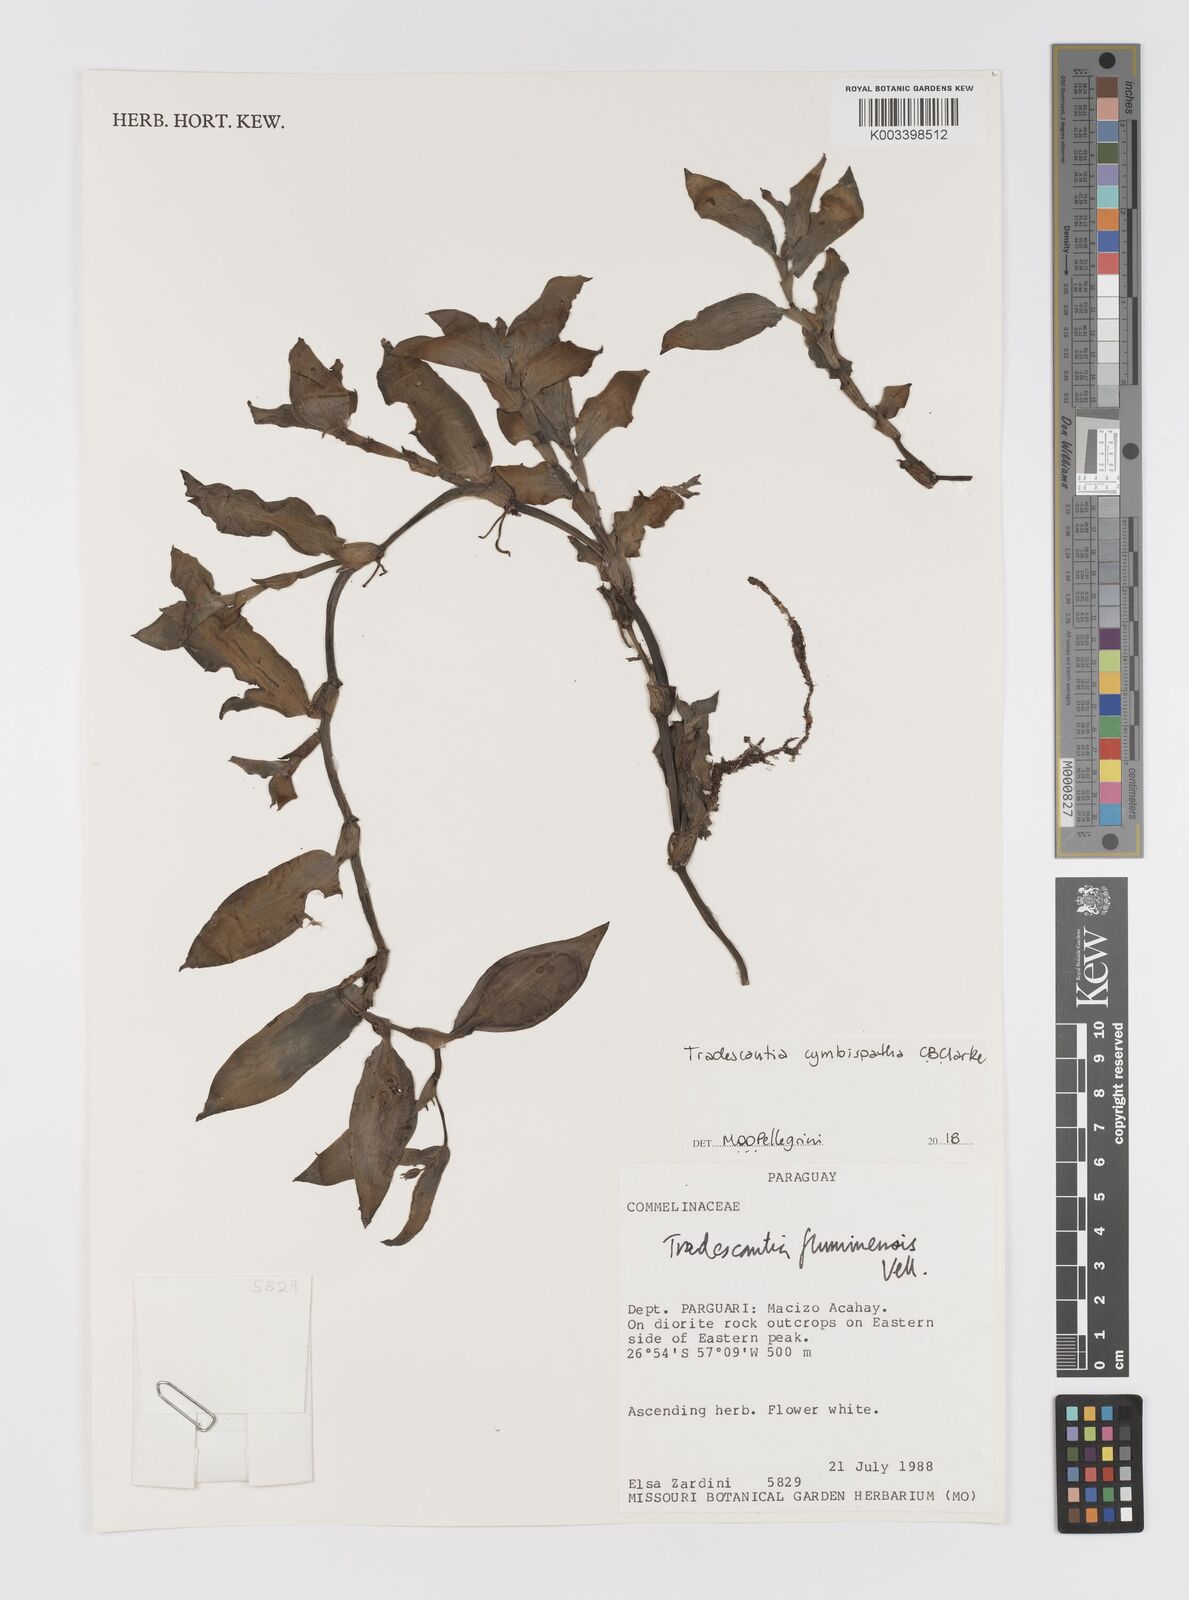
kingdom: Plantae
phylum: Tracheophyta
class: Liliopsida
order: Commelinales
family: Commelinaceae
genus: Tradescantia
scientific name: Tradescantia cymbispatha
